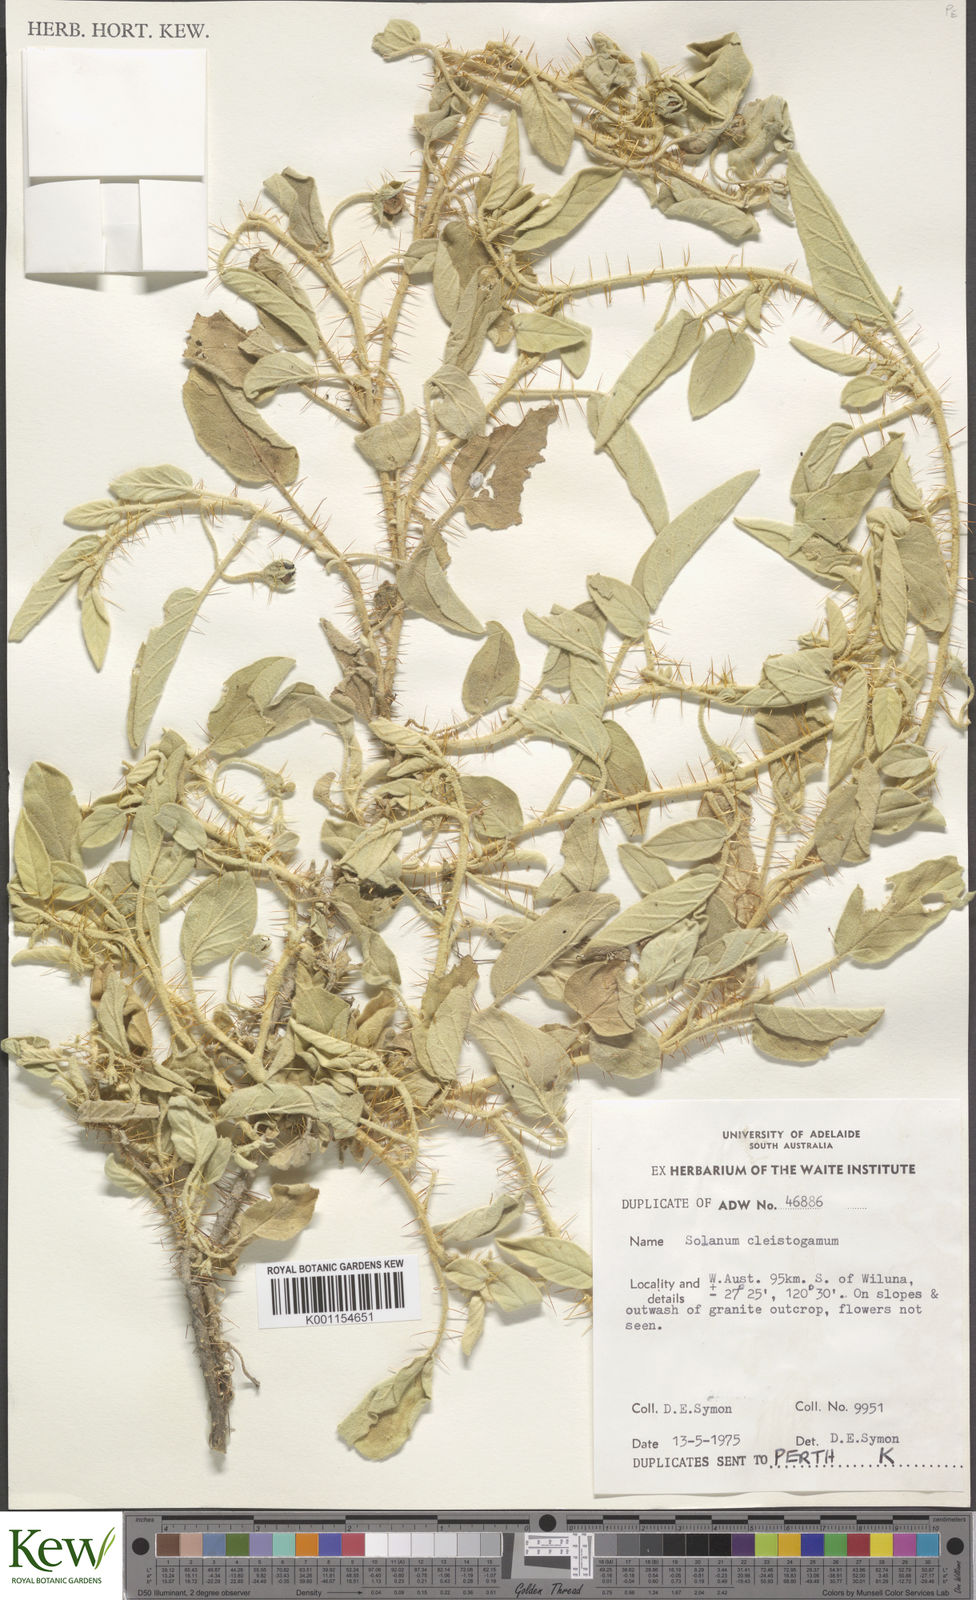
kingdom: Plantae
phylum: Tracheophyta
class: Magnoliopsida
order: Solanales
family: Solanaceae
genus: Solanum
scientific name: Solanum cleistogamum
